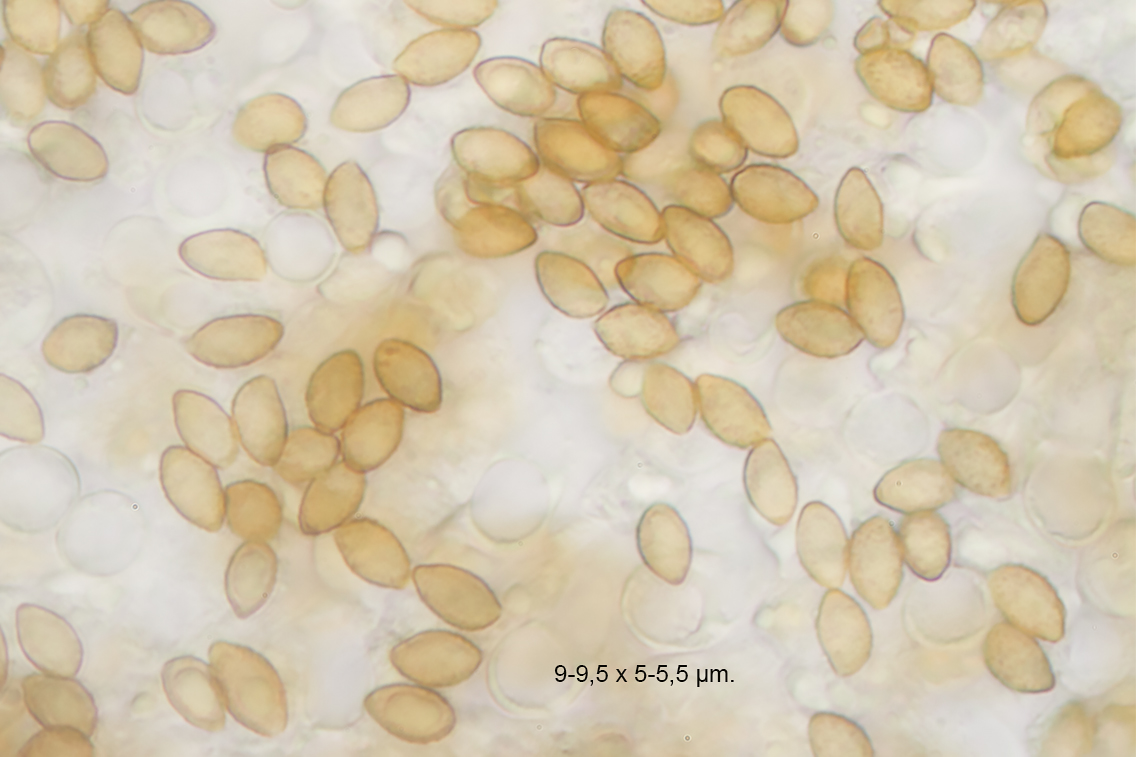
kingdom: Fungi
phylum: Basidiomycota
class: Agaricomycetes
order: Agaricales
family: Cortinariaceae
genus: Cortinarius
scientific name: Cortinarius foetens
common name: stribet slørhat
